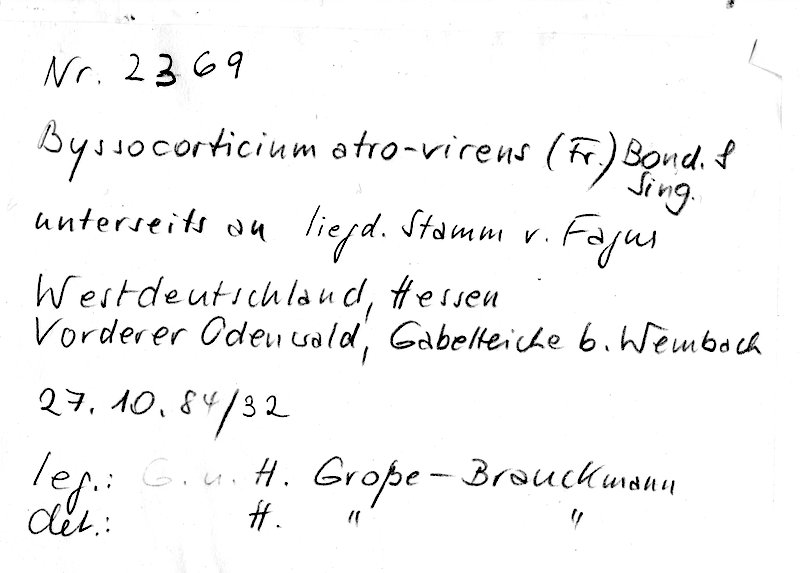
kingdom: Fungi
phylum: Basidiomycota
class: Agaricomycetes
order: Atheliales
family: Atheliaceae
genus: Byssocorticium
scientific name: Byssocorticium atrovirens
